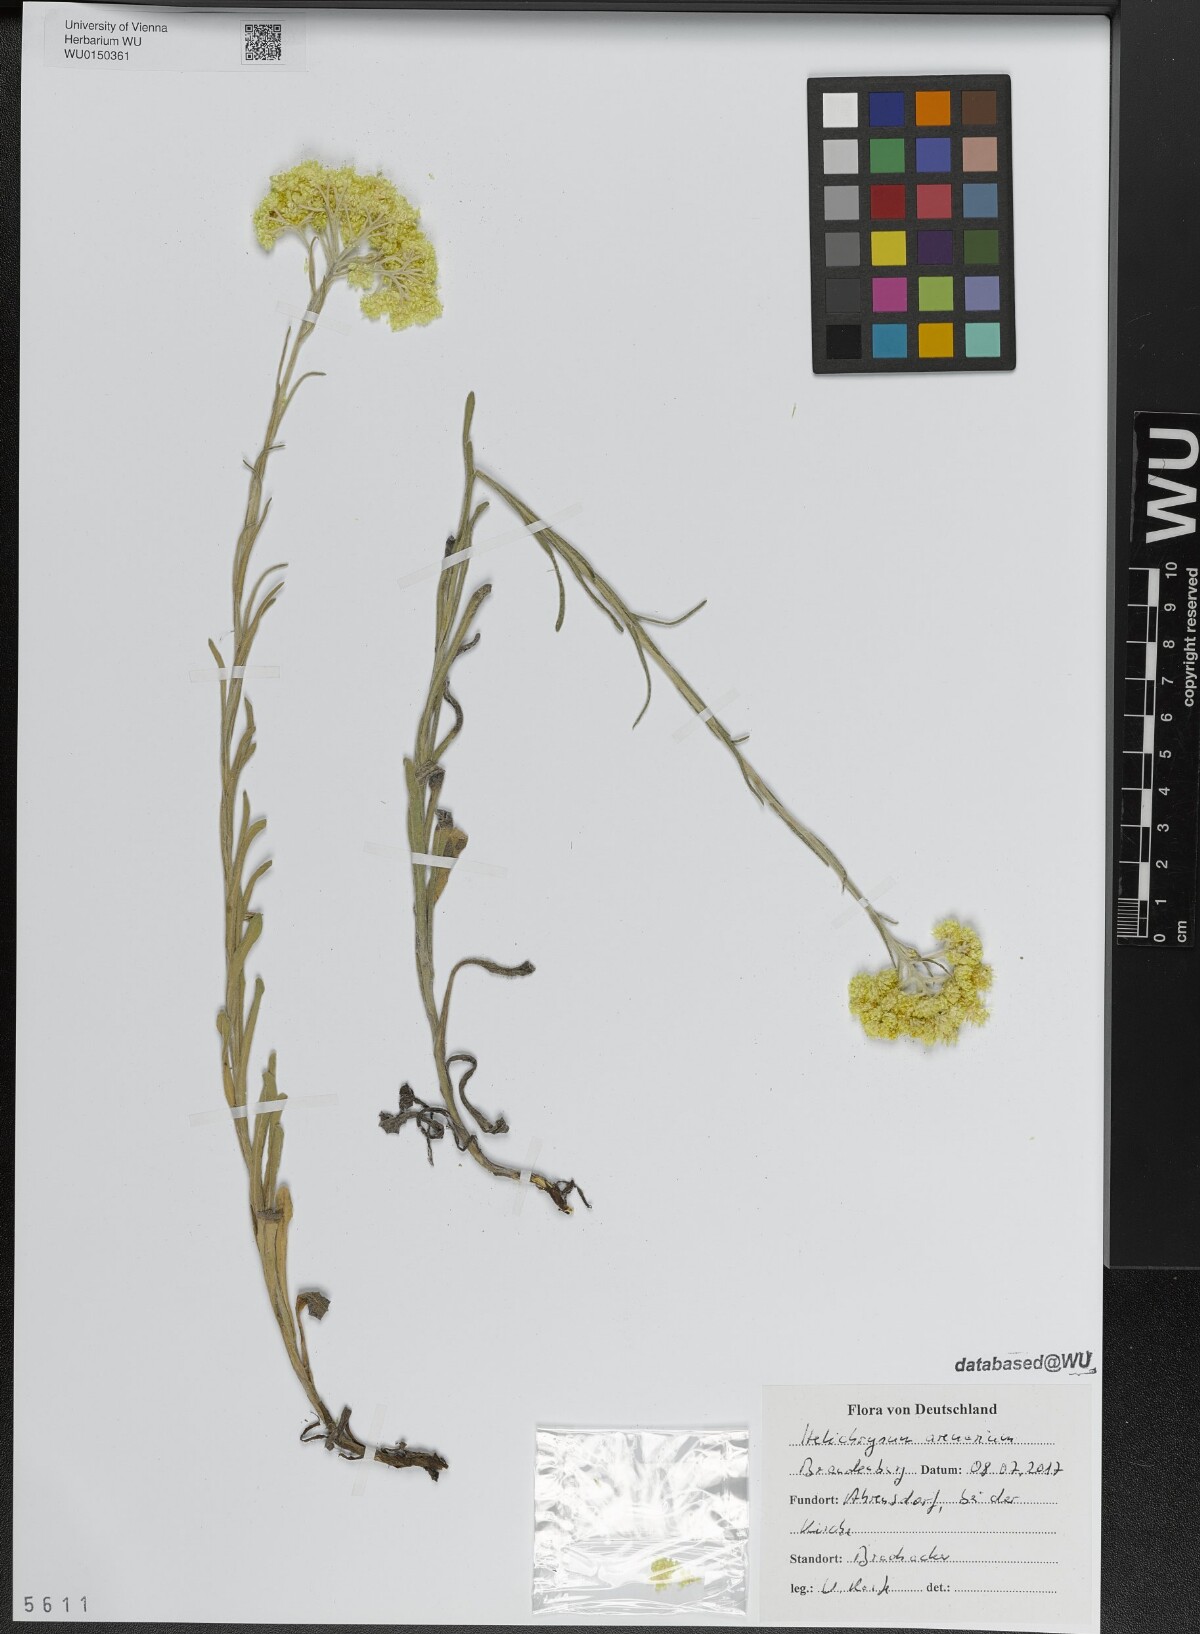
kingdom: Plantae
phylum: Tracheophyta
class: Magnoliopsida
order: Asterales
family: Asteraceae
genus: Helichrysum
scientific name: Helichrysum arenarium
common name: Strawflower
